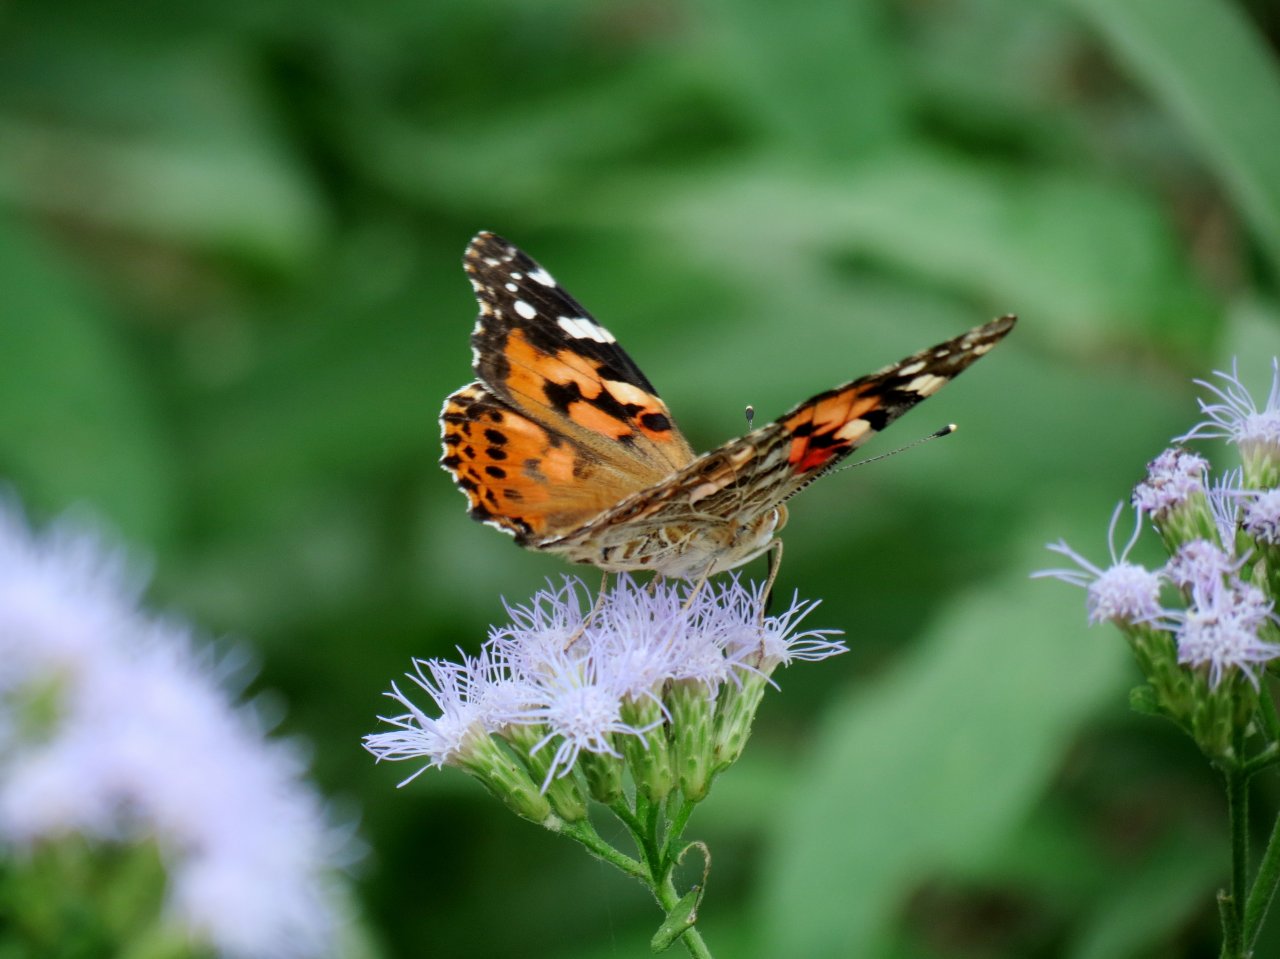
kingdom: Animalia
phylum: Arthropoda
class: Insecta
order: Lepidoptera
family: Nymphalidae
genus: Vanessa
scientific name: Vanessa cardui
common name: Painted Lady
